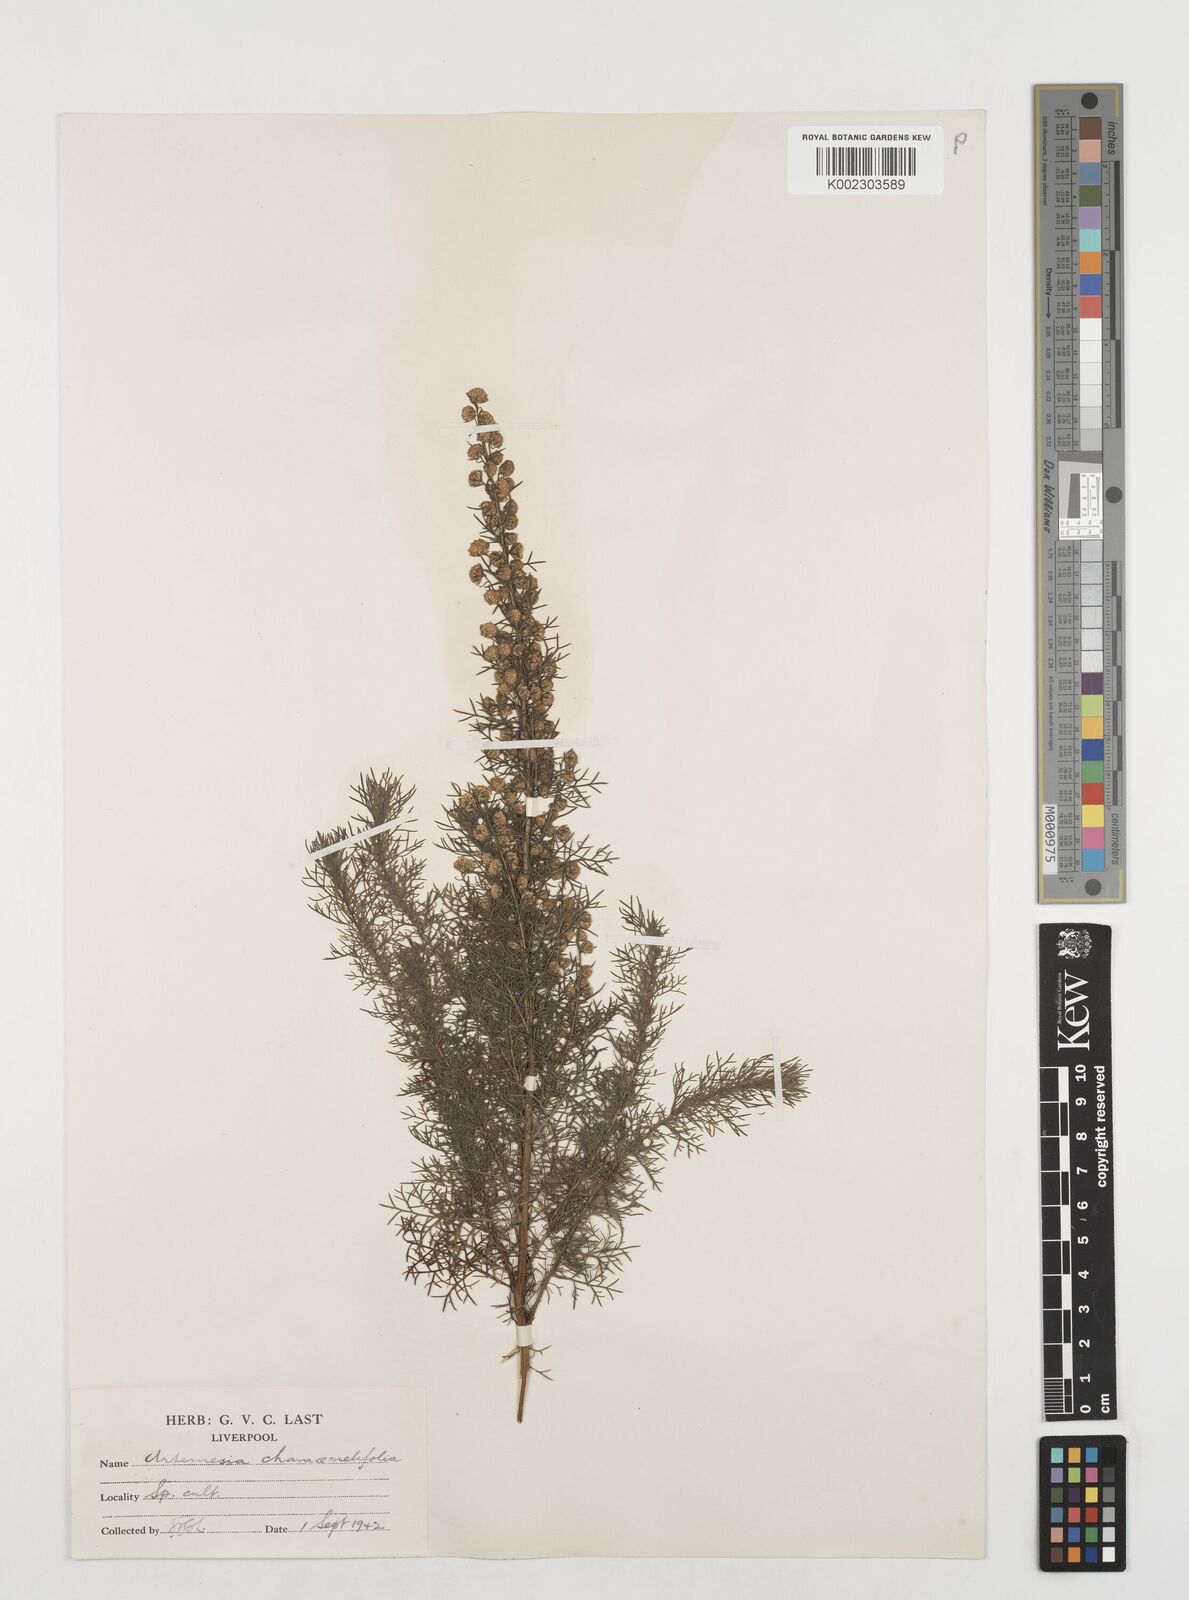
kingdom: Plantae
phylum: Tracheophyta
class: Magnoliopsida
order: Asterales
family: Asteraceae
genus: Artemisia
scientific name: Artemisia chamaemelifolia
